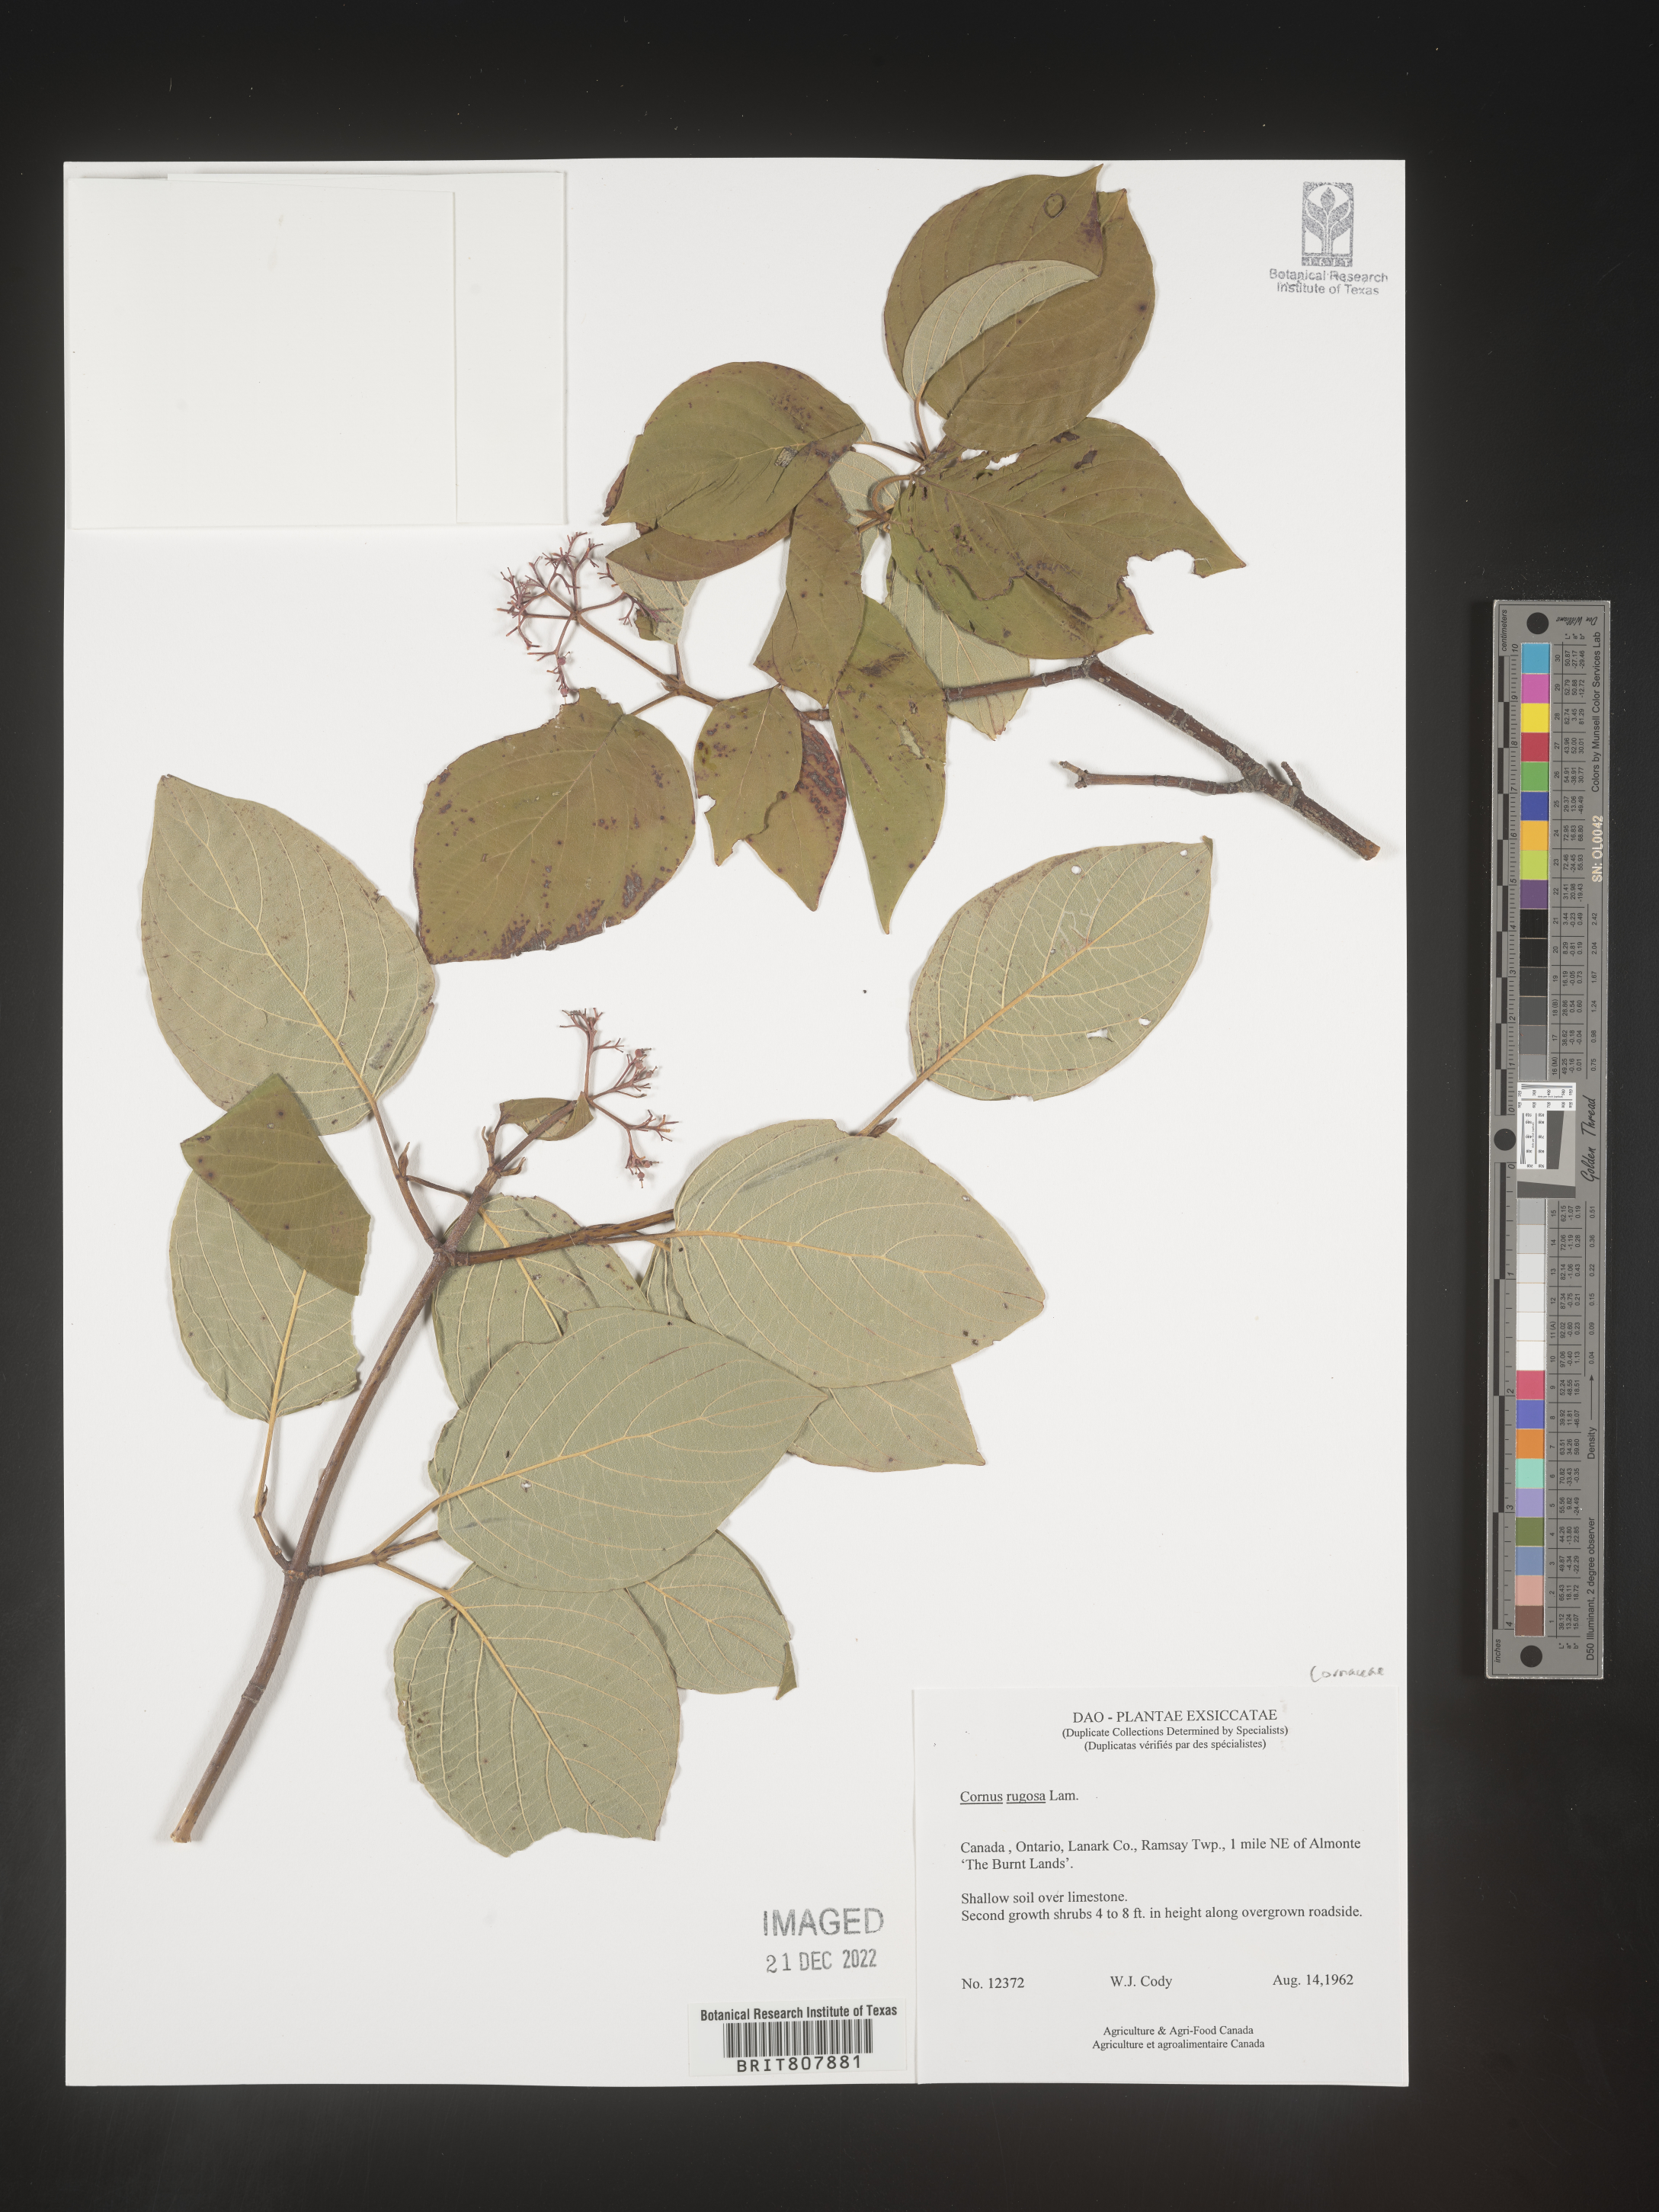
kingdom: Plantae
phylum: Tracheophyta
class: Magnoliopsida
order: Cornales
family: Cornaceae
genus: Cornus
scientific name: Cornus rugosa
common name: Round-leaf dogwood
